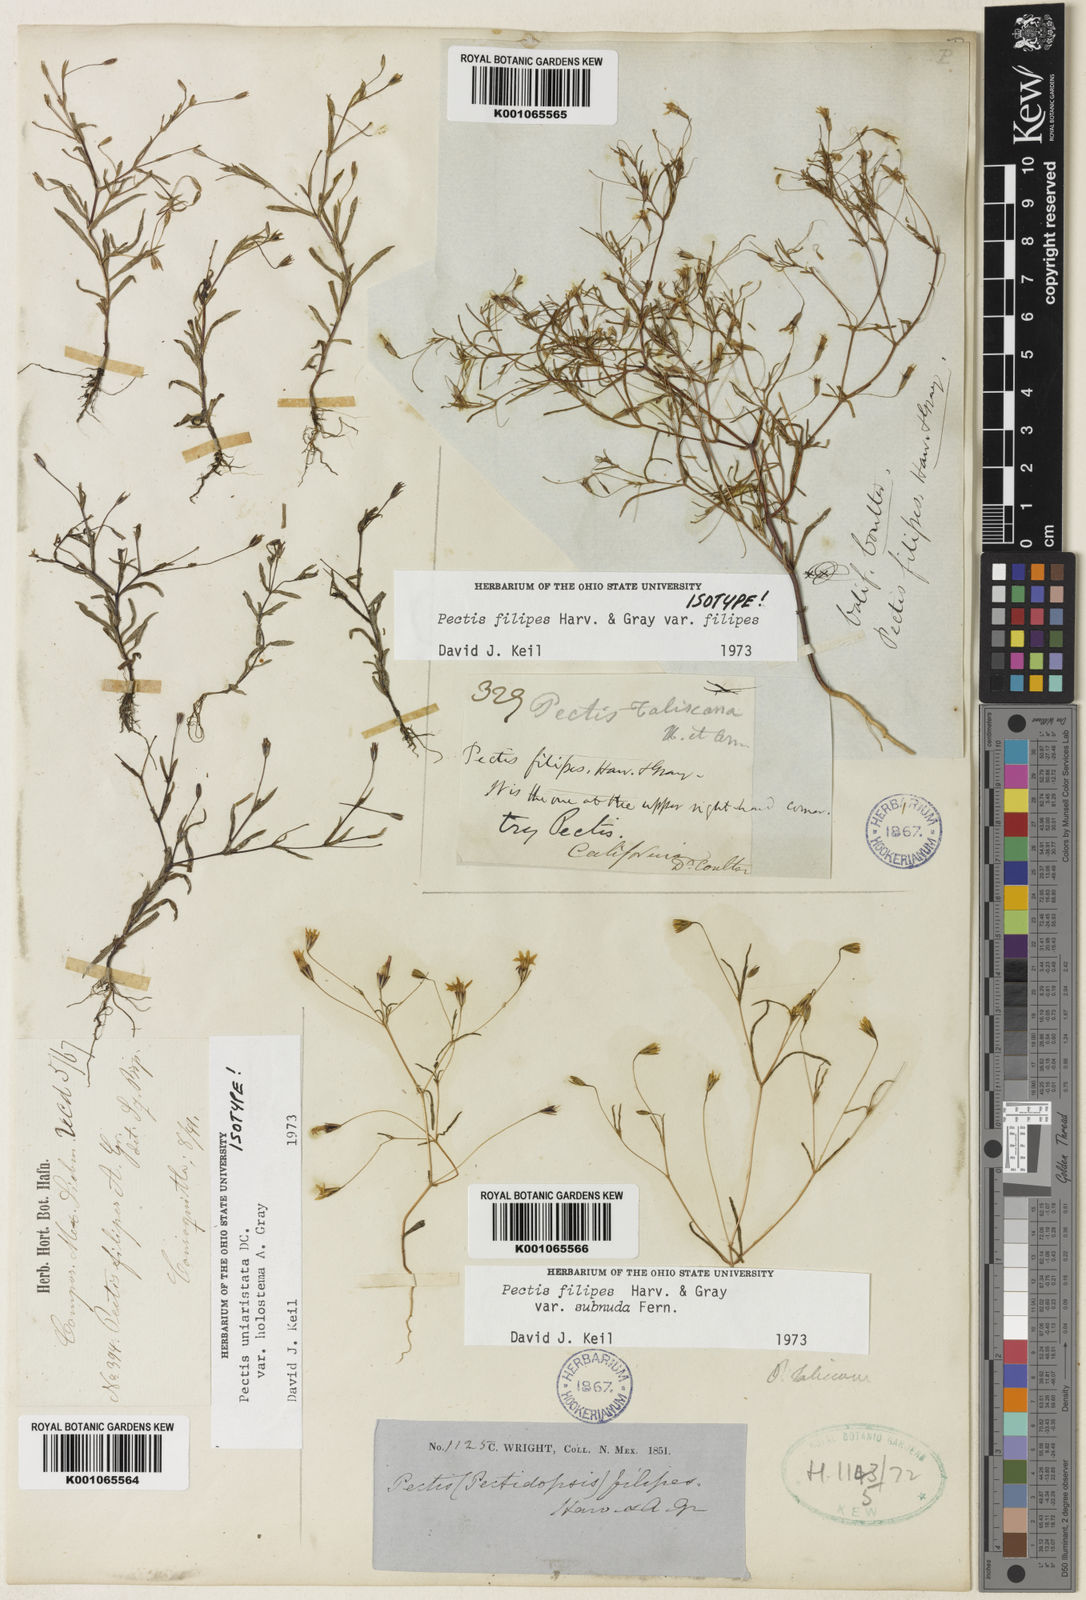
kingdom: Plantae
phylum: Tracheophyta
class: Magnoliopsida
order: Asterales
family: Asteraceae
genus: Pectis
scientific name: Pectis filipes
